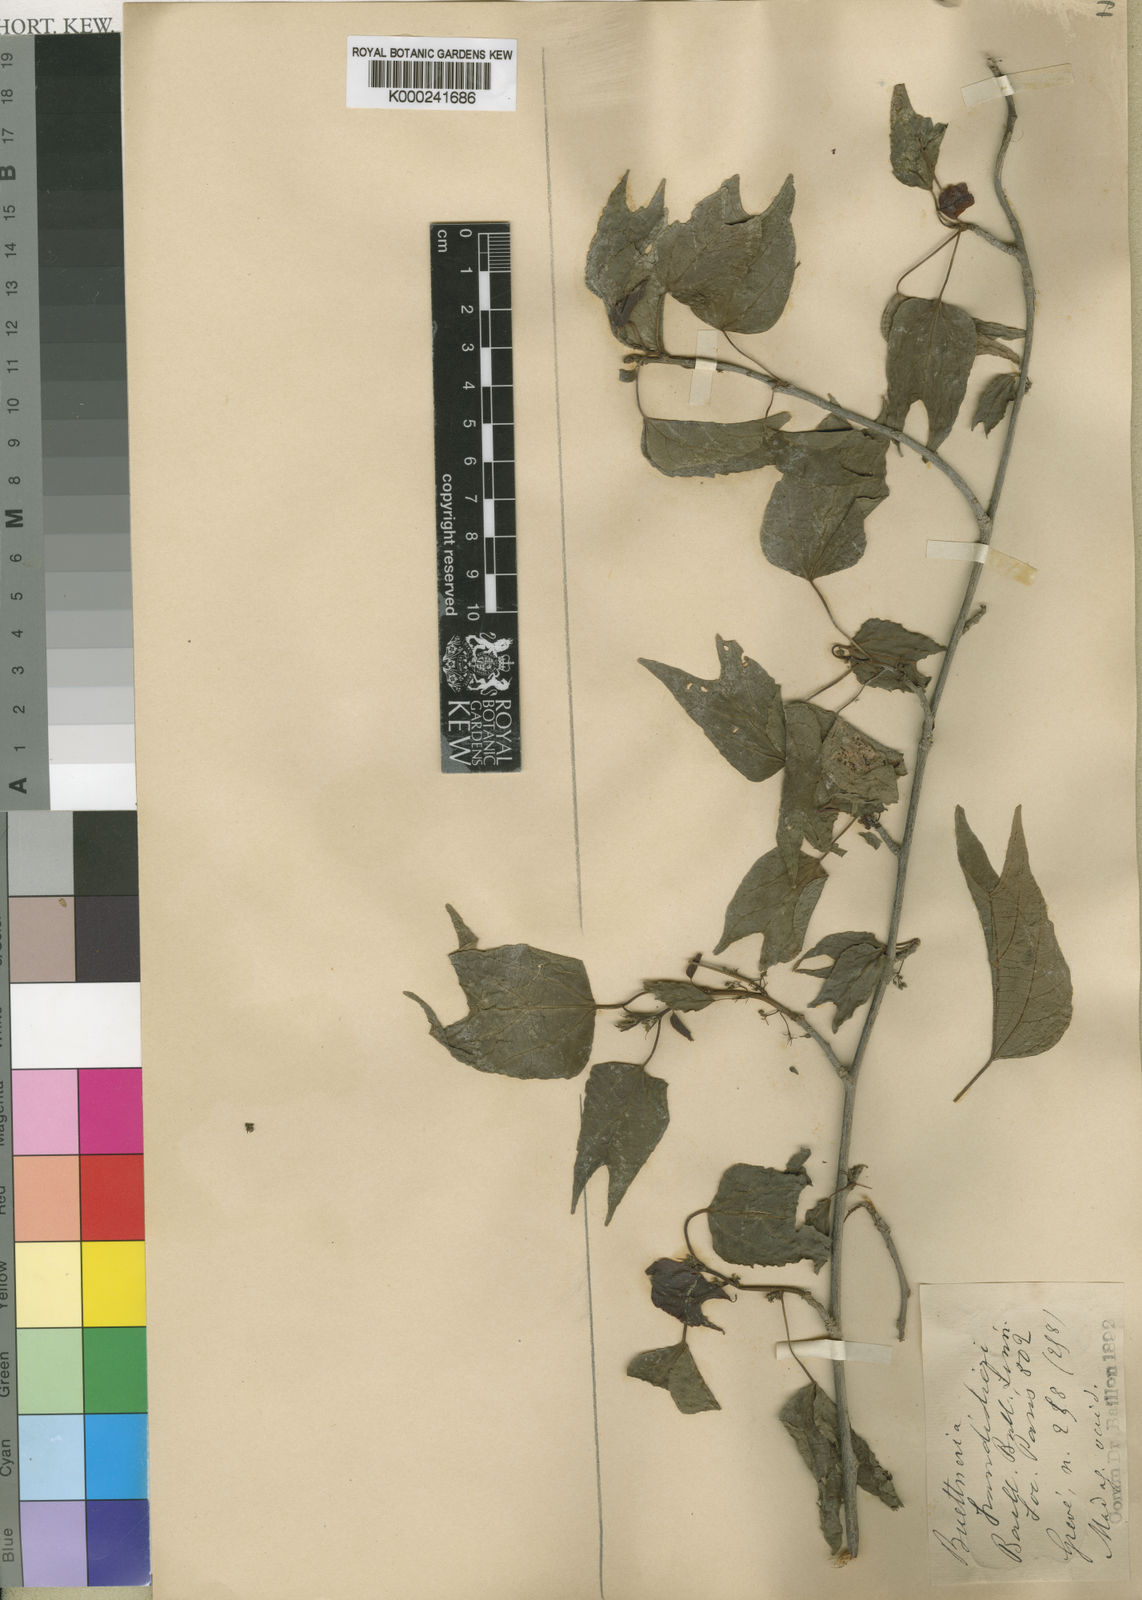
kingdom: Plantae
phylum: Tracheophyta
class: Magnoliopsida
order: Malvales
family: Malvaceae
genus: Byttneria
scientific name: Byttneria
